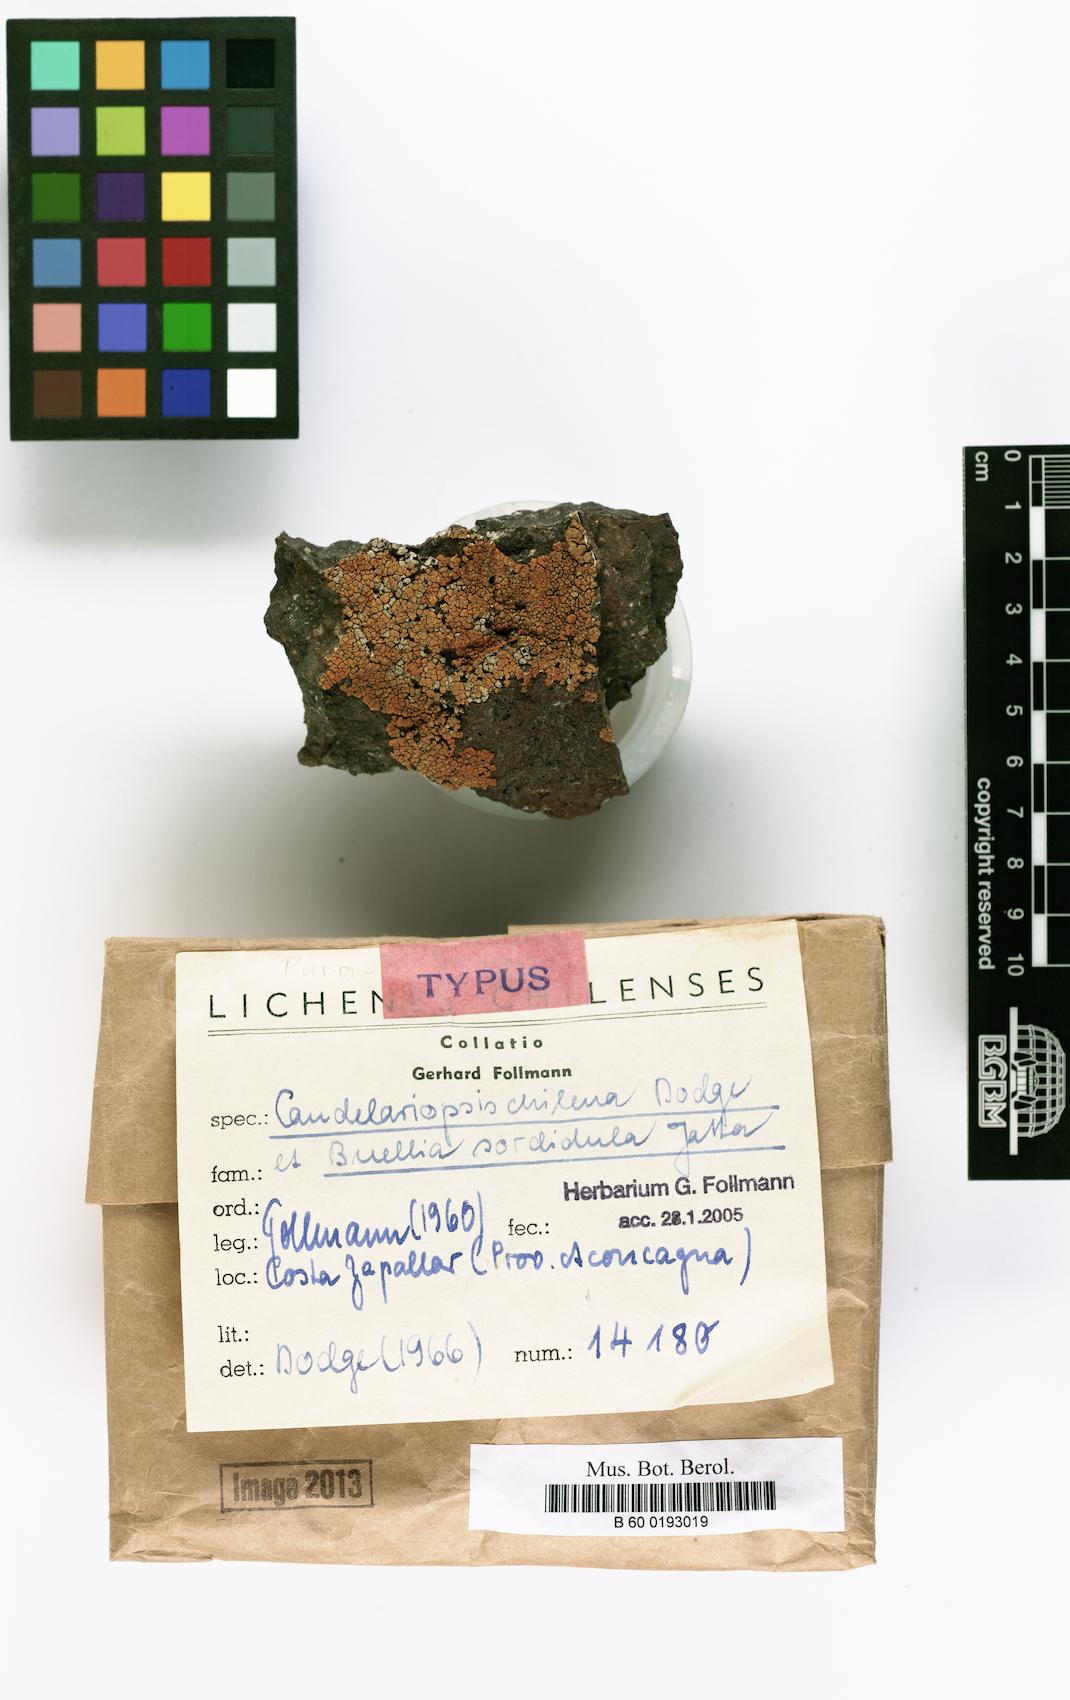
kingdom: Fungi
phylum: Ascomycota
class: Lecanoromycetes
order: Teloschistales
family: Teloschistaceae
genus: Caloplaca
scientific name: Caloplaca
